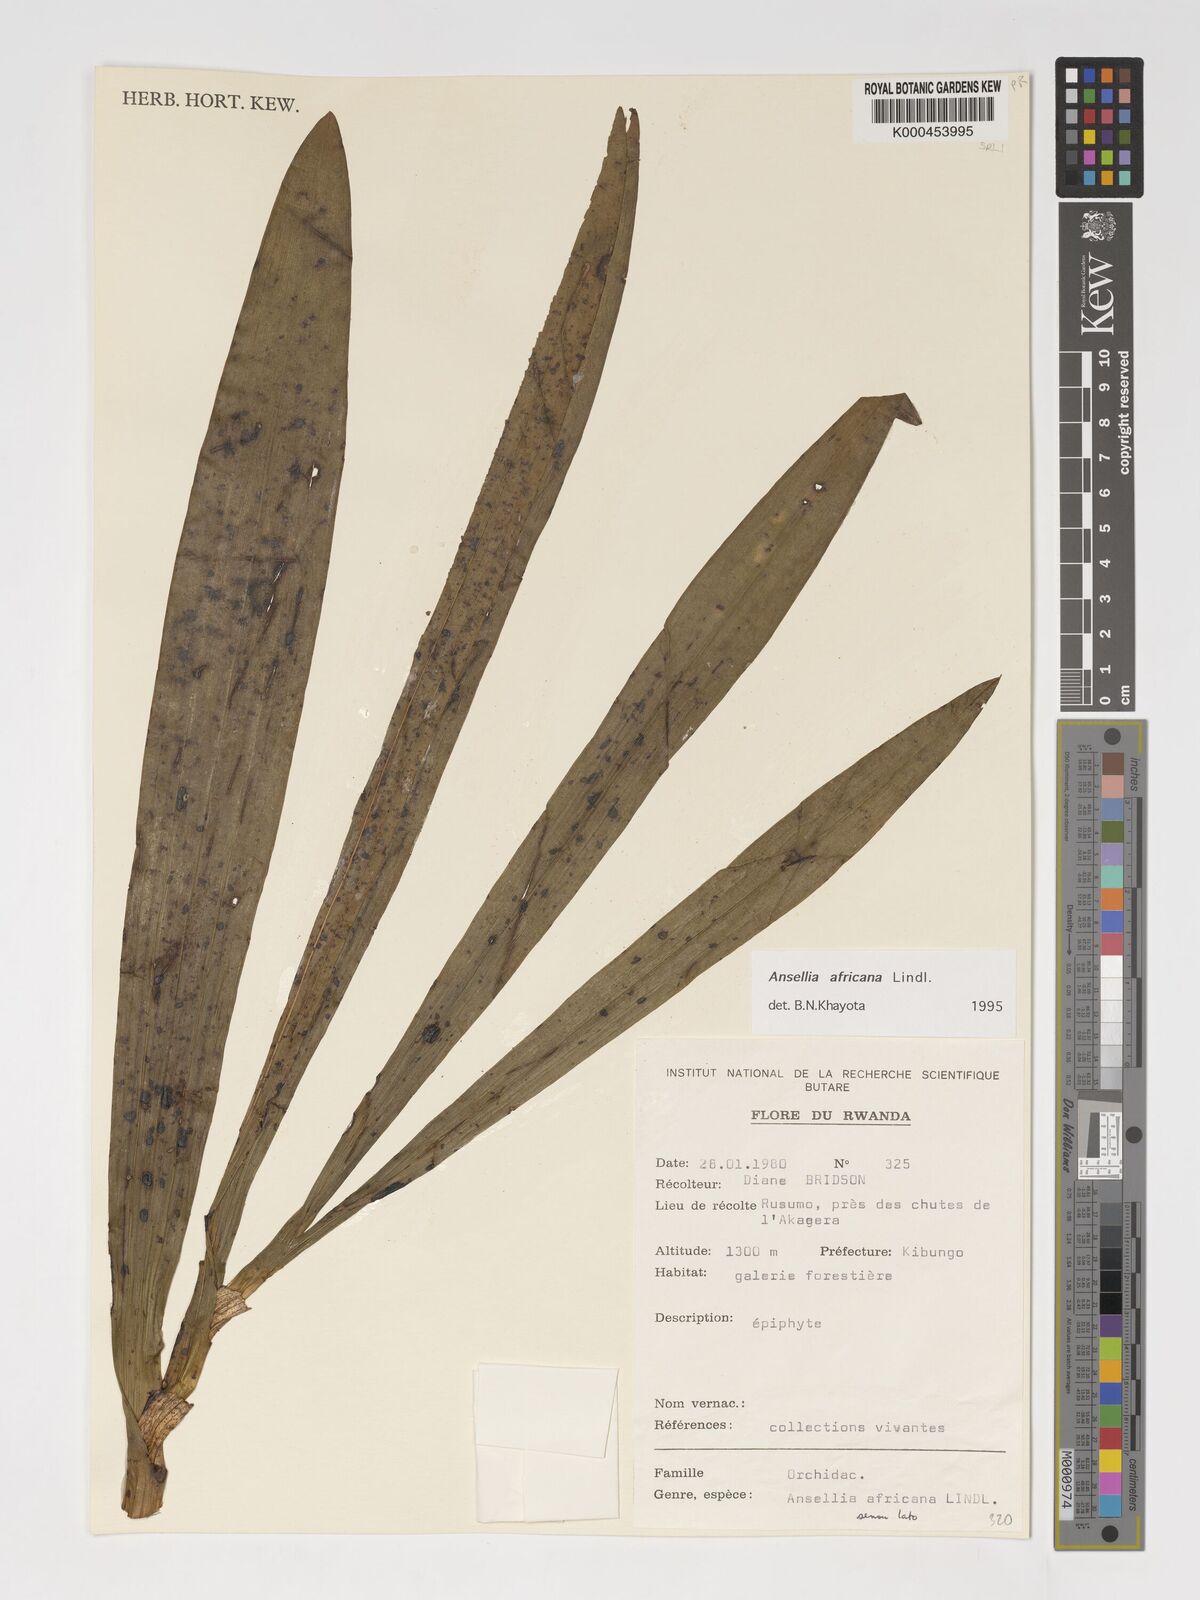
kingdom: Plantae
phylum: Tracheophyta
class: Liliopsida
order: Asparagales
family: Orchidaceae
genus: Ansellia
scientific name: Ansellia africana
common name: African ansellia
